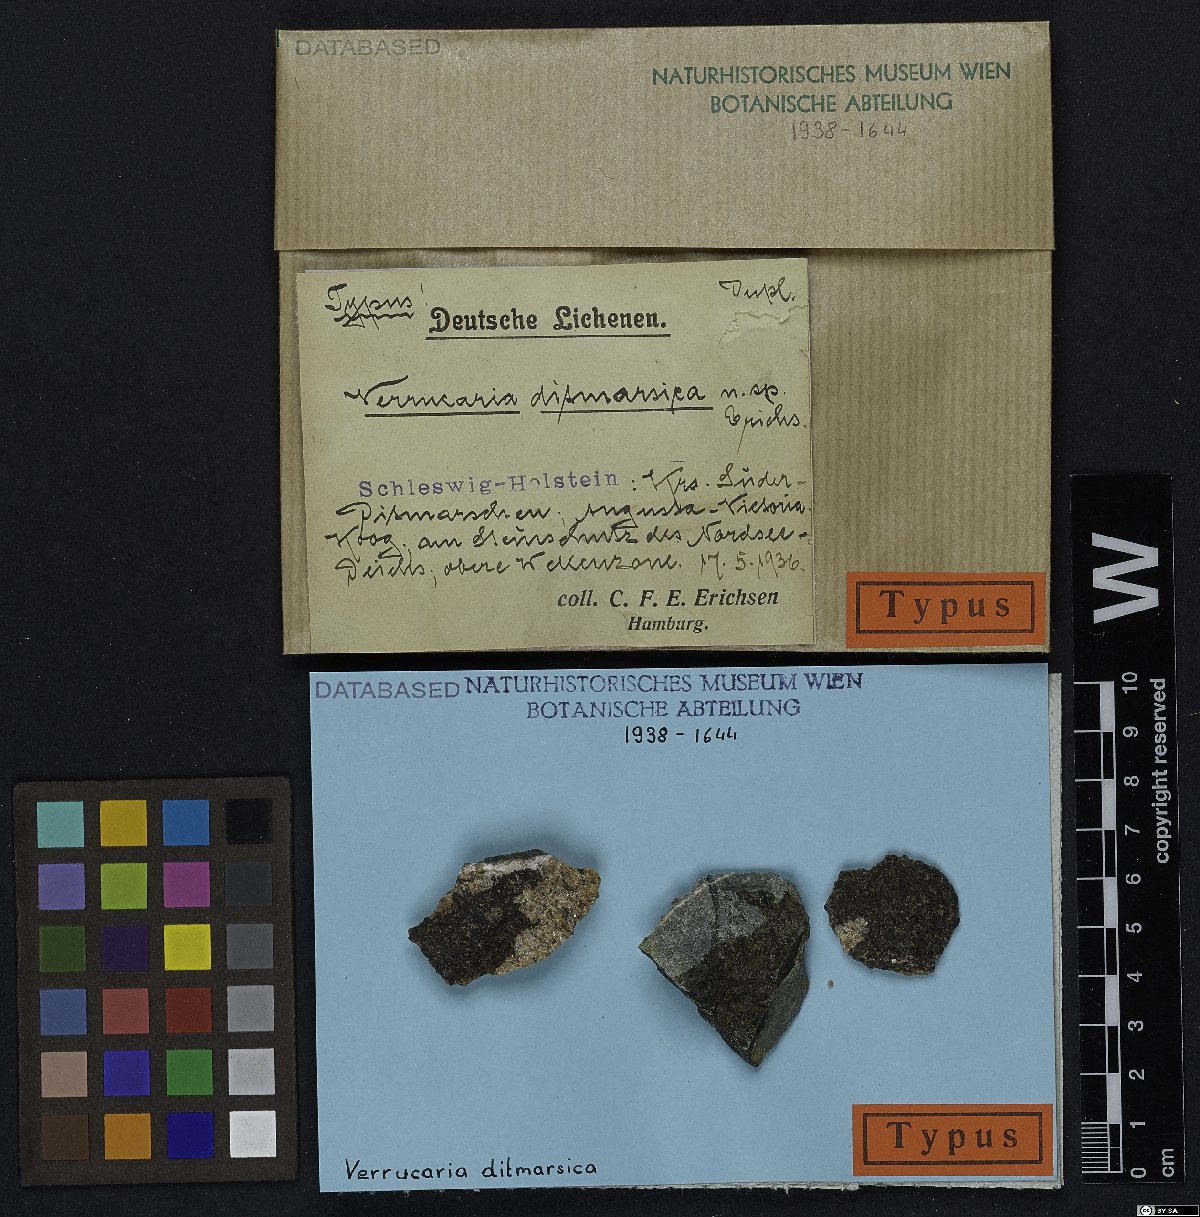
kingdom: Fungi
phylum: Ascomycota
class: Eurotiomycetes
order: Verrucariales
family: Verrucariaceae
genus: Verrucaria
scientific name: Verrucaria ditmarsica
